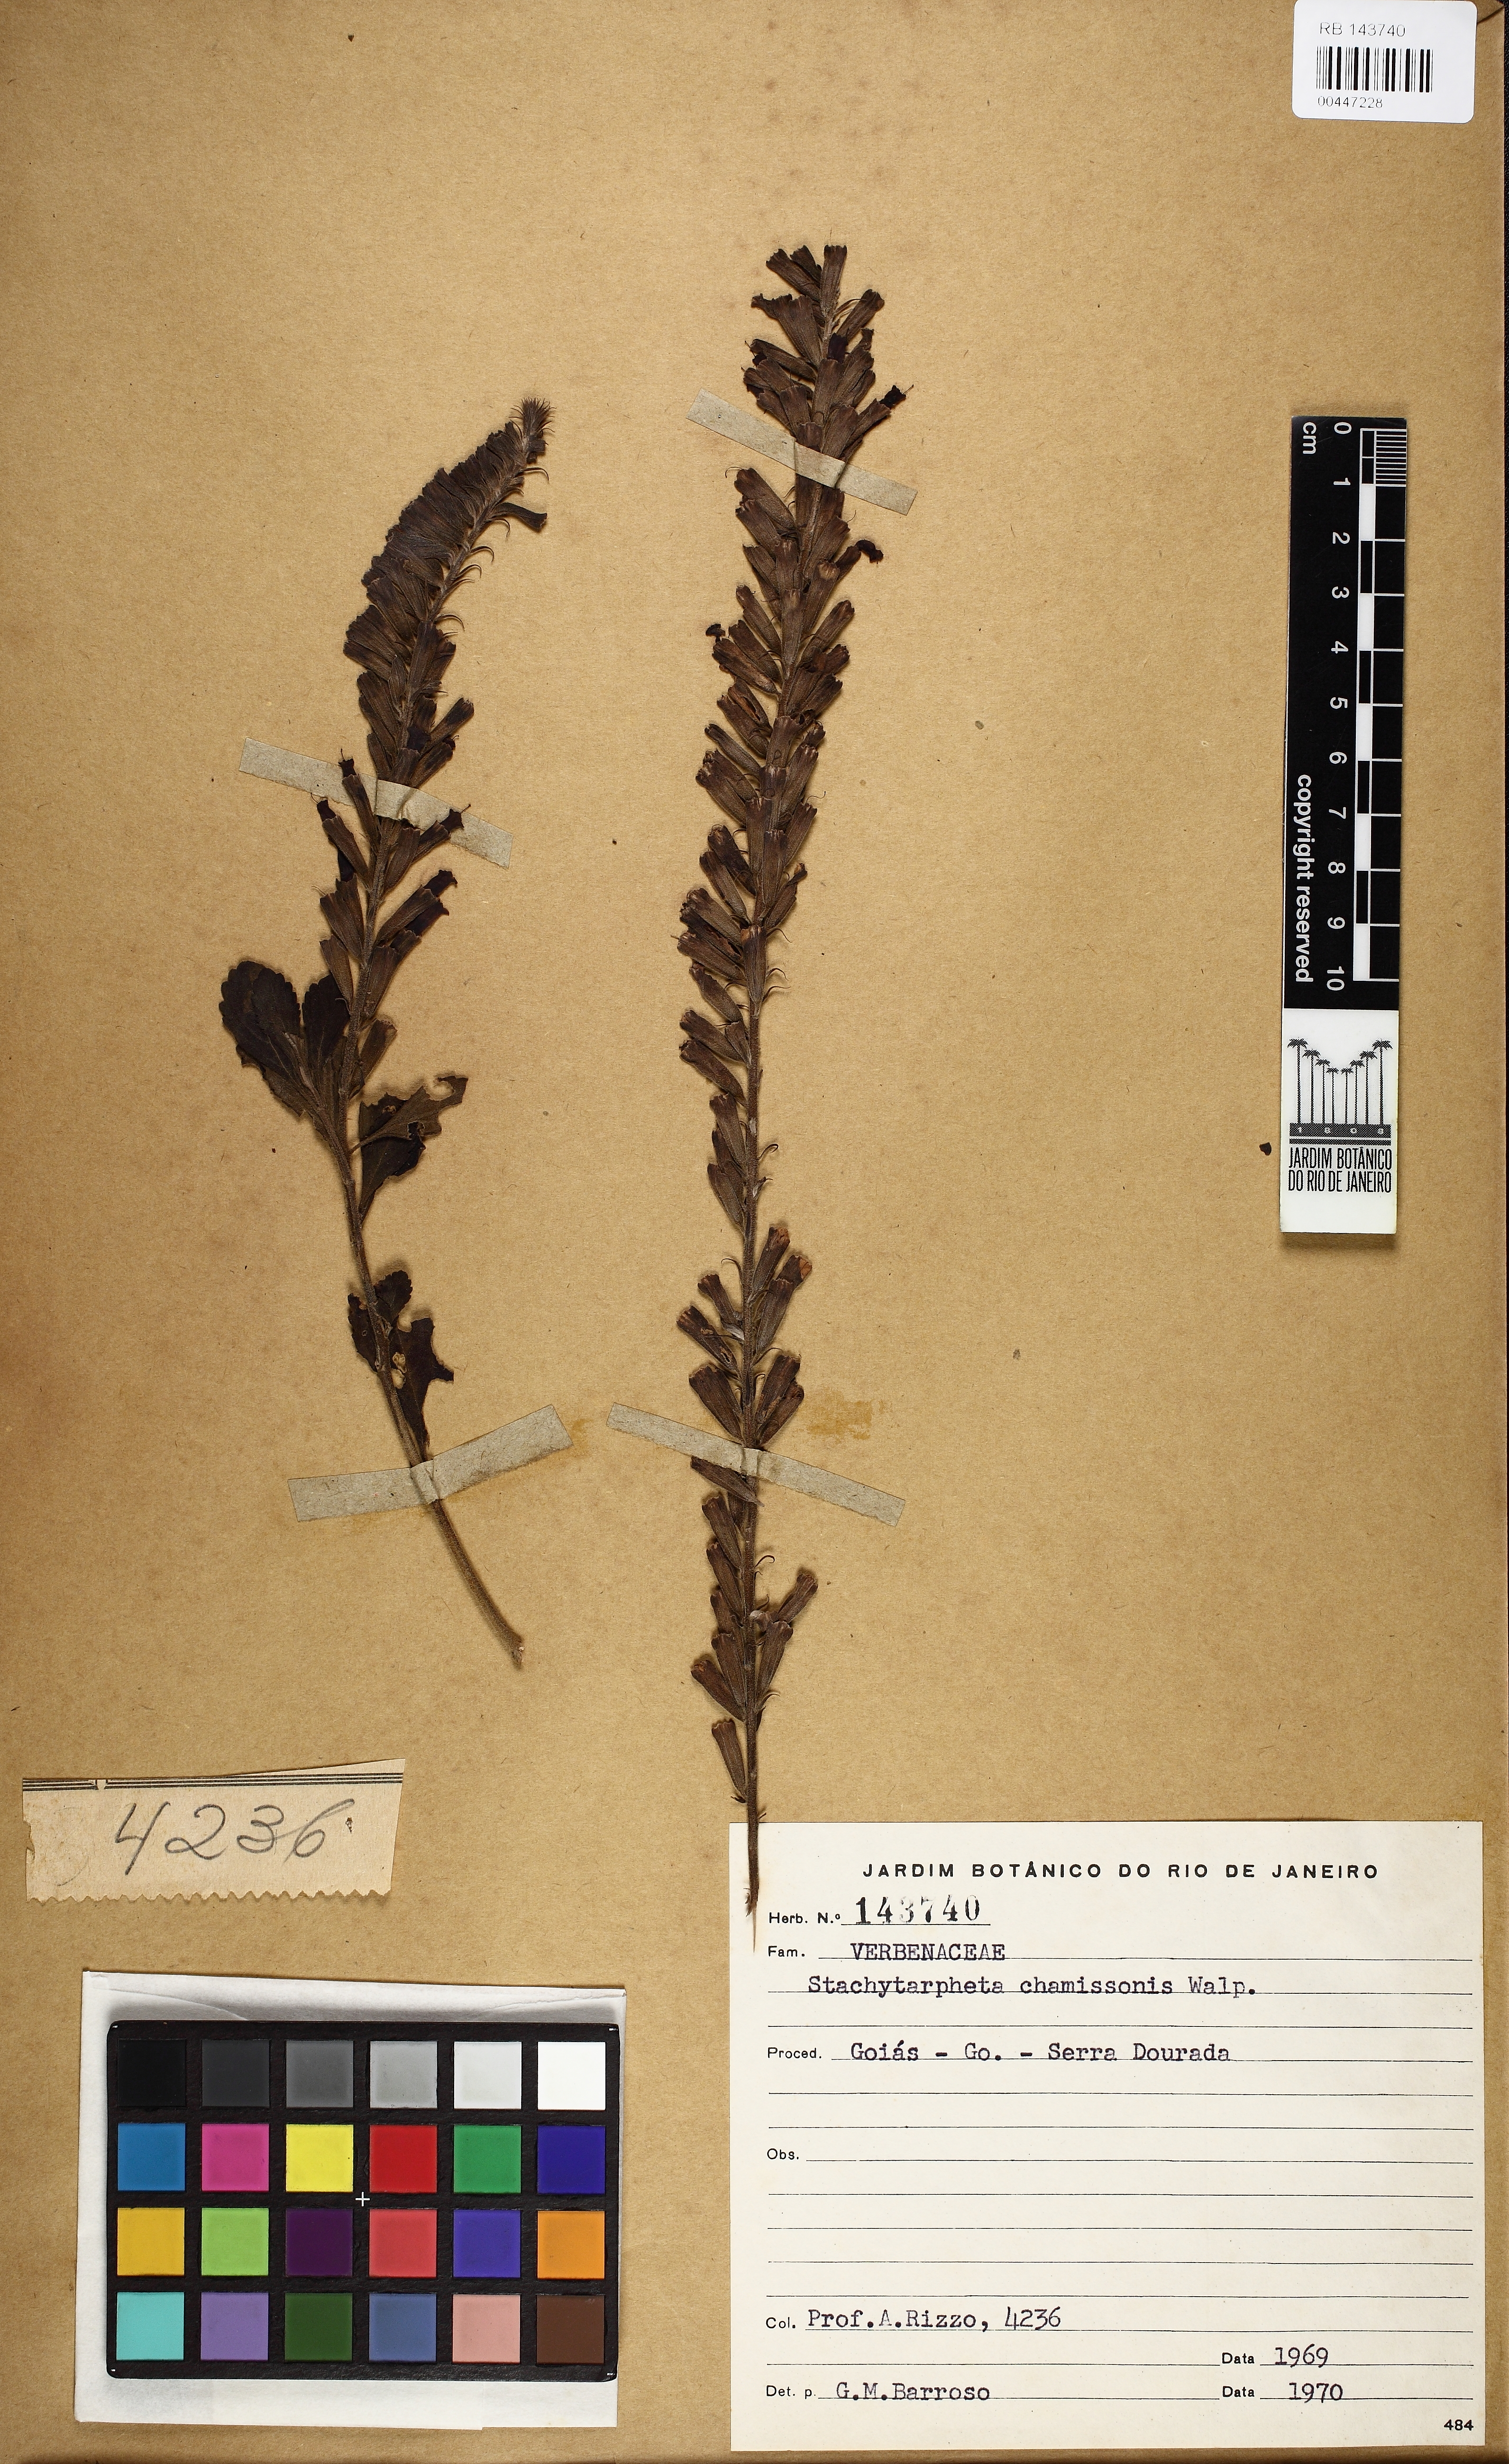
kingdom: Plantae
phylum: Tracheophyta
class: Magnoliopsida
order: Lamiales
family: Verbenaceae
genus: Stachytarpheta
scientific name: Stachytarpheta longispicata
